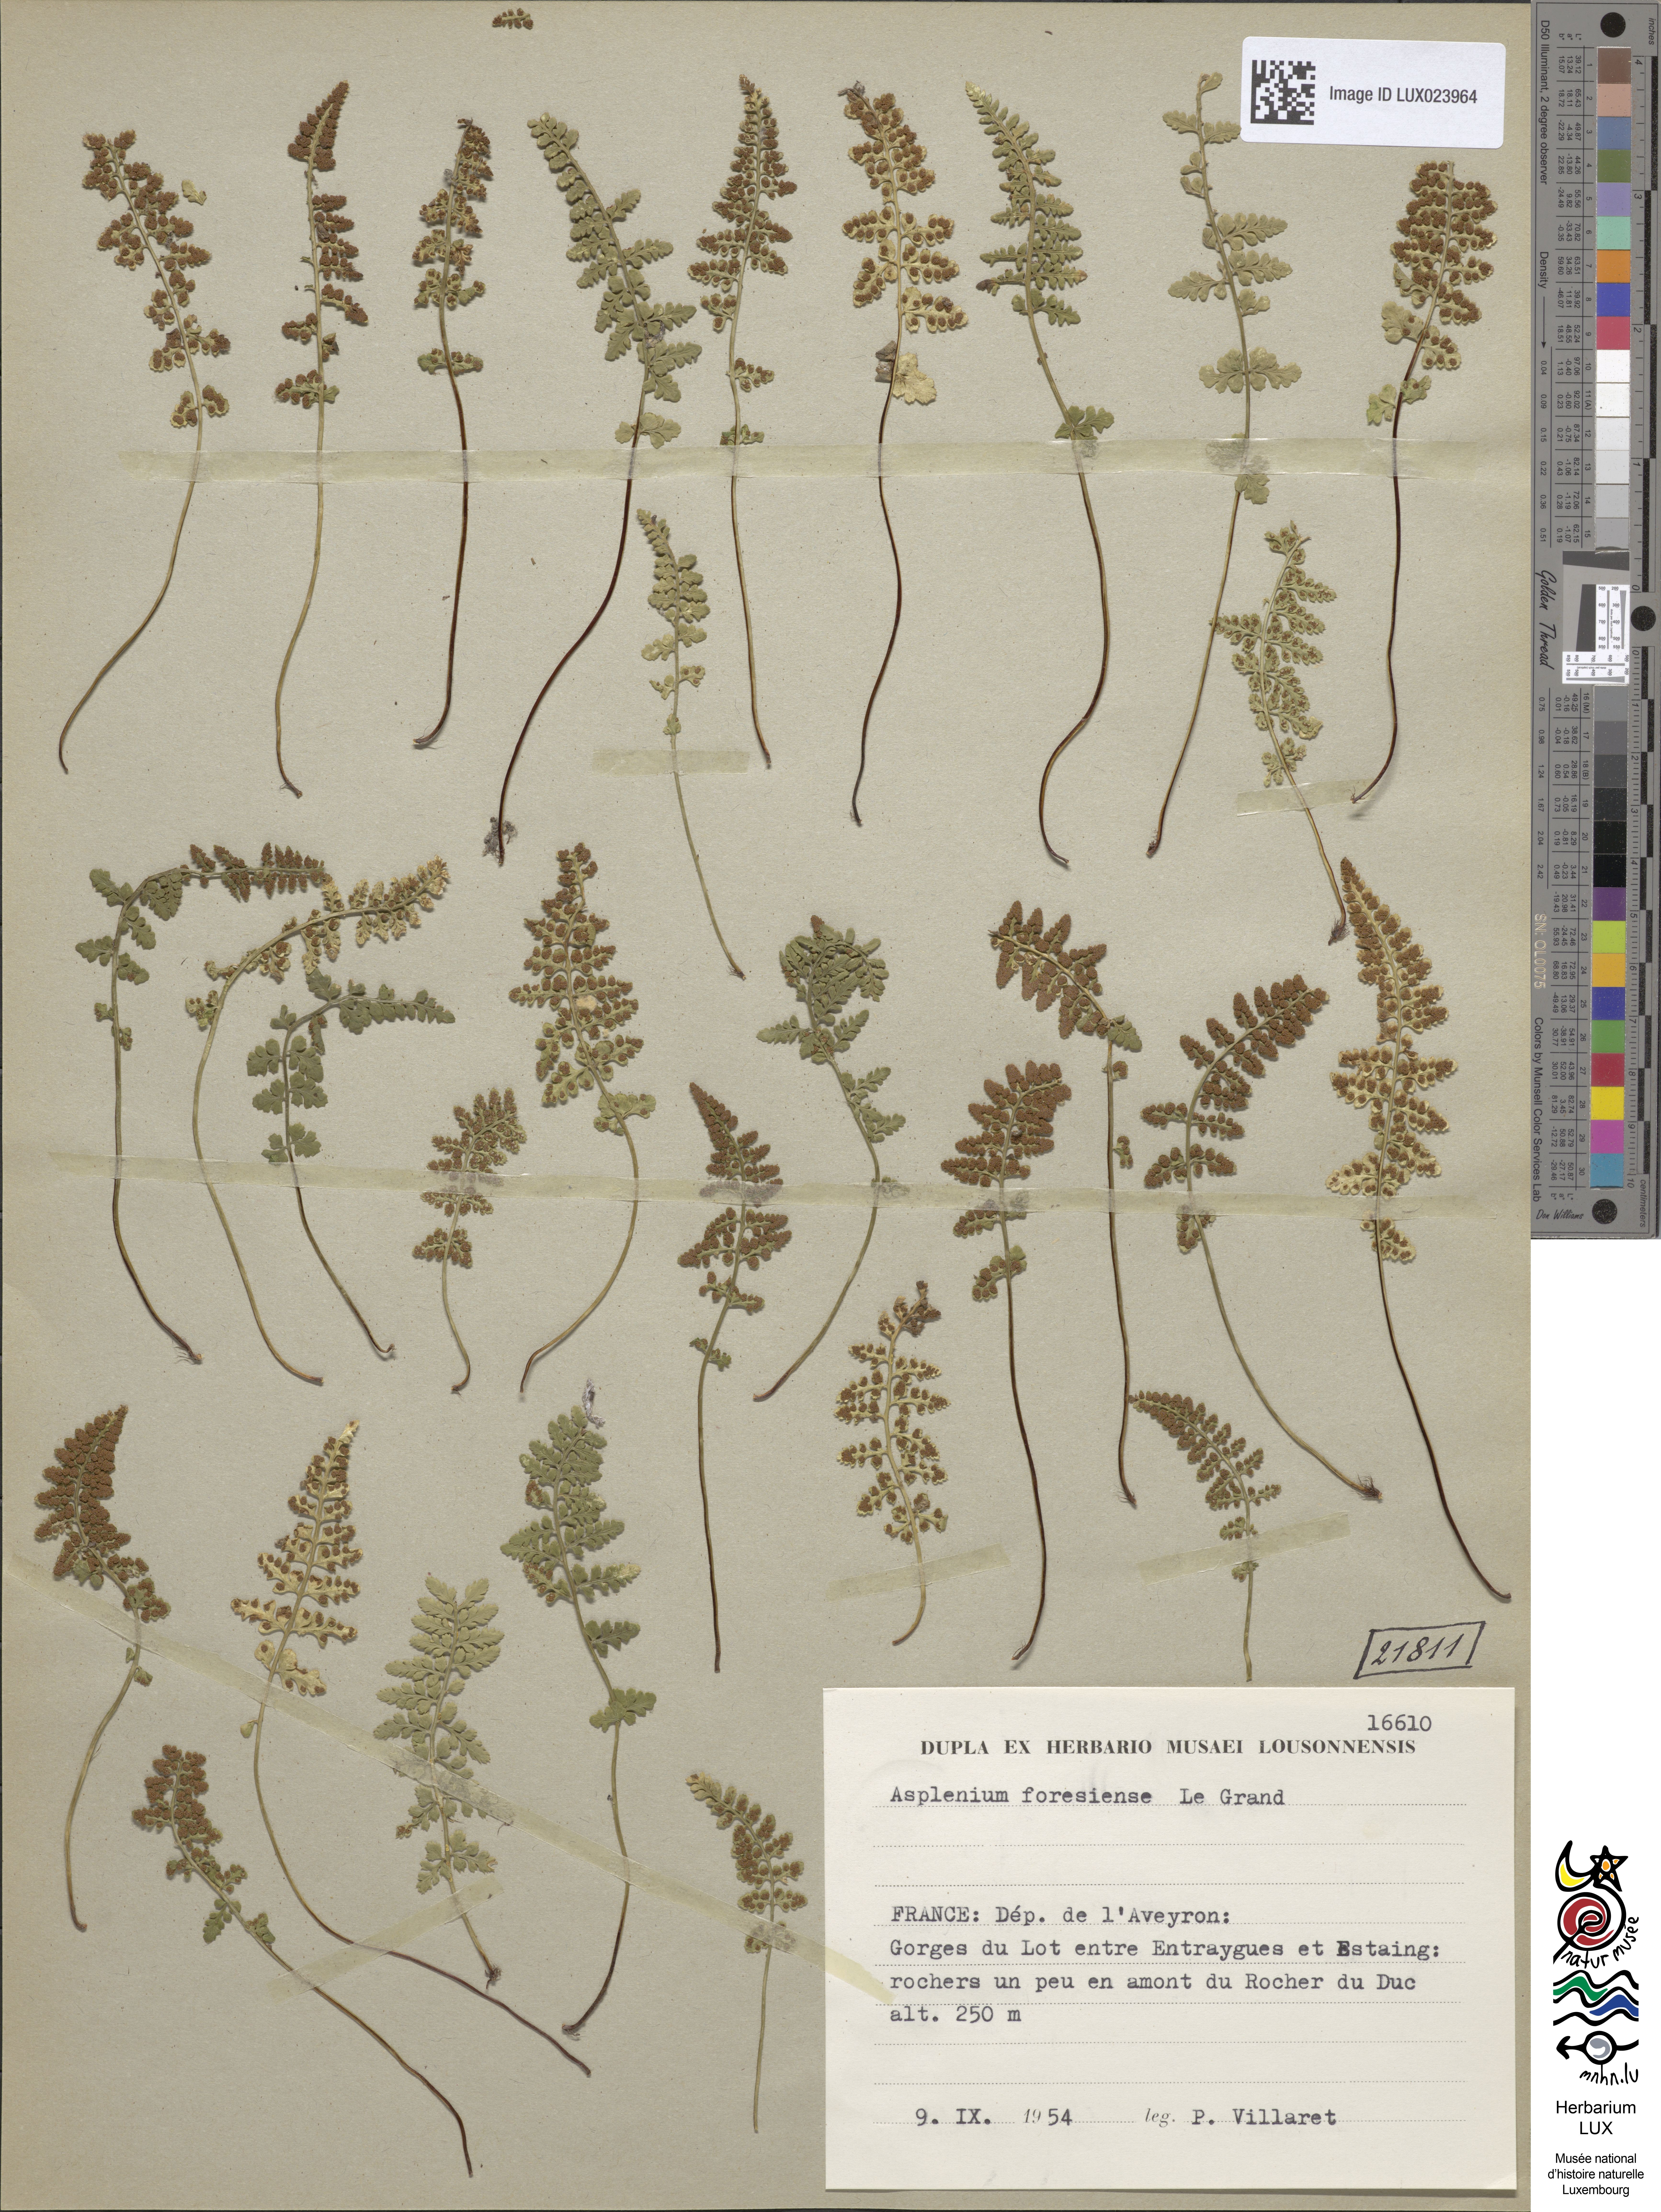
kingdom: Plantae
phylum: Tracheophyta
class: Polypodiopsida
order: Polypodiales
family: Aspleniaceae
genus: Asplenium
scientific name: Asplenium foresiense
